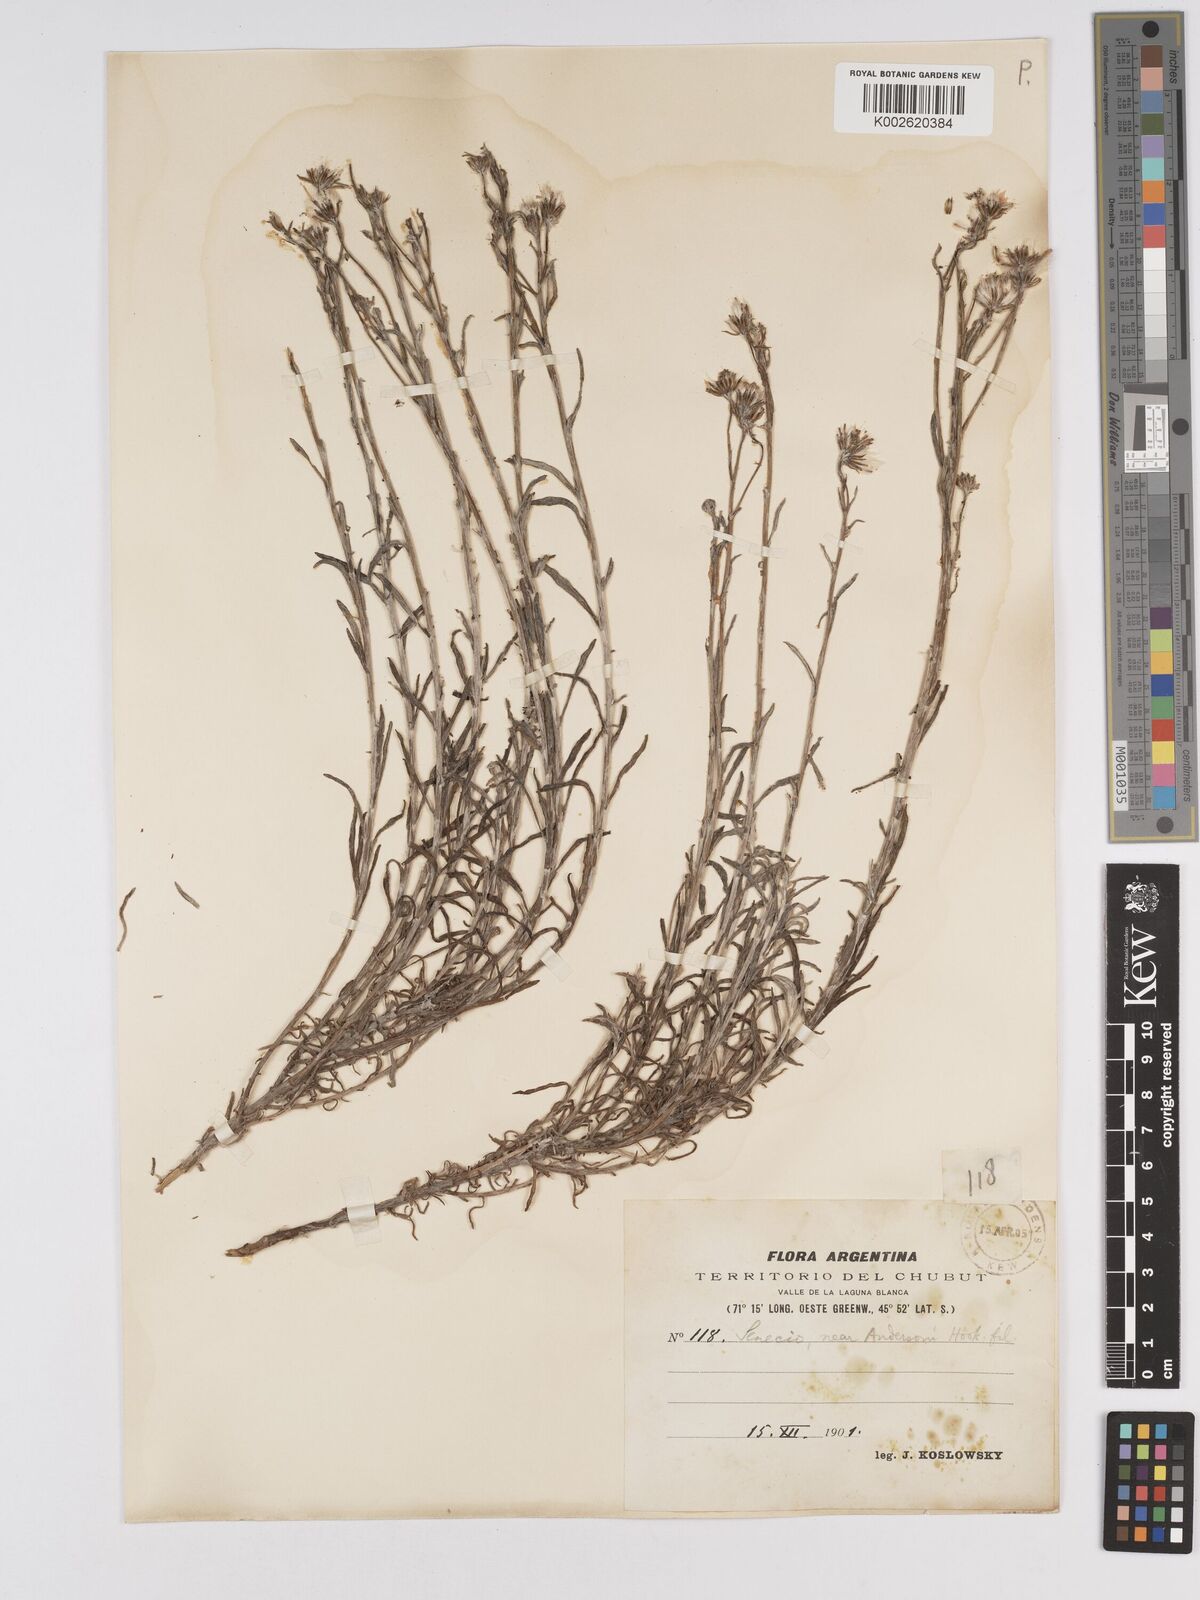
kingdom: Plantae
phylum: Tracheophyta
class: Magnoliopsida
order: Asterales
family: Asteraceae
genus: Senecio
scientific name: Senecio patagonicus
